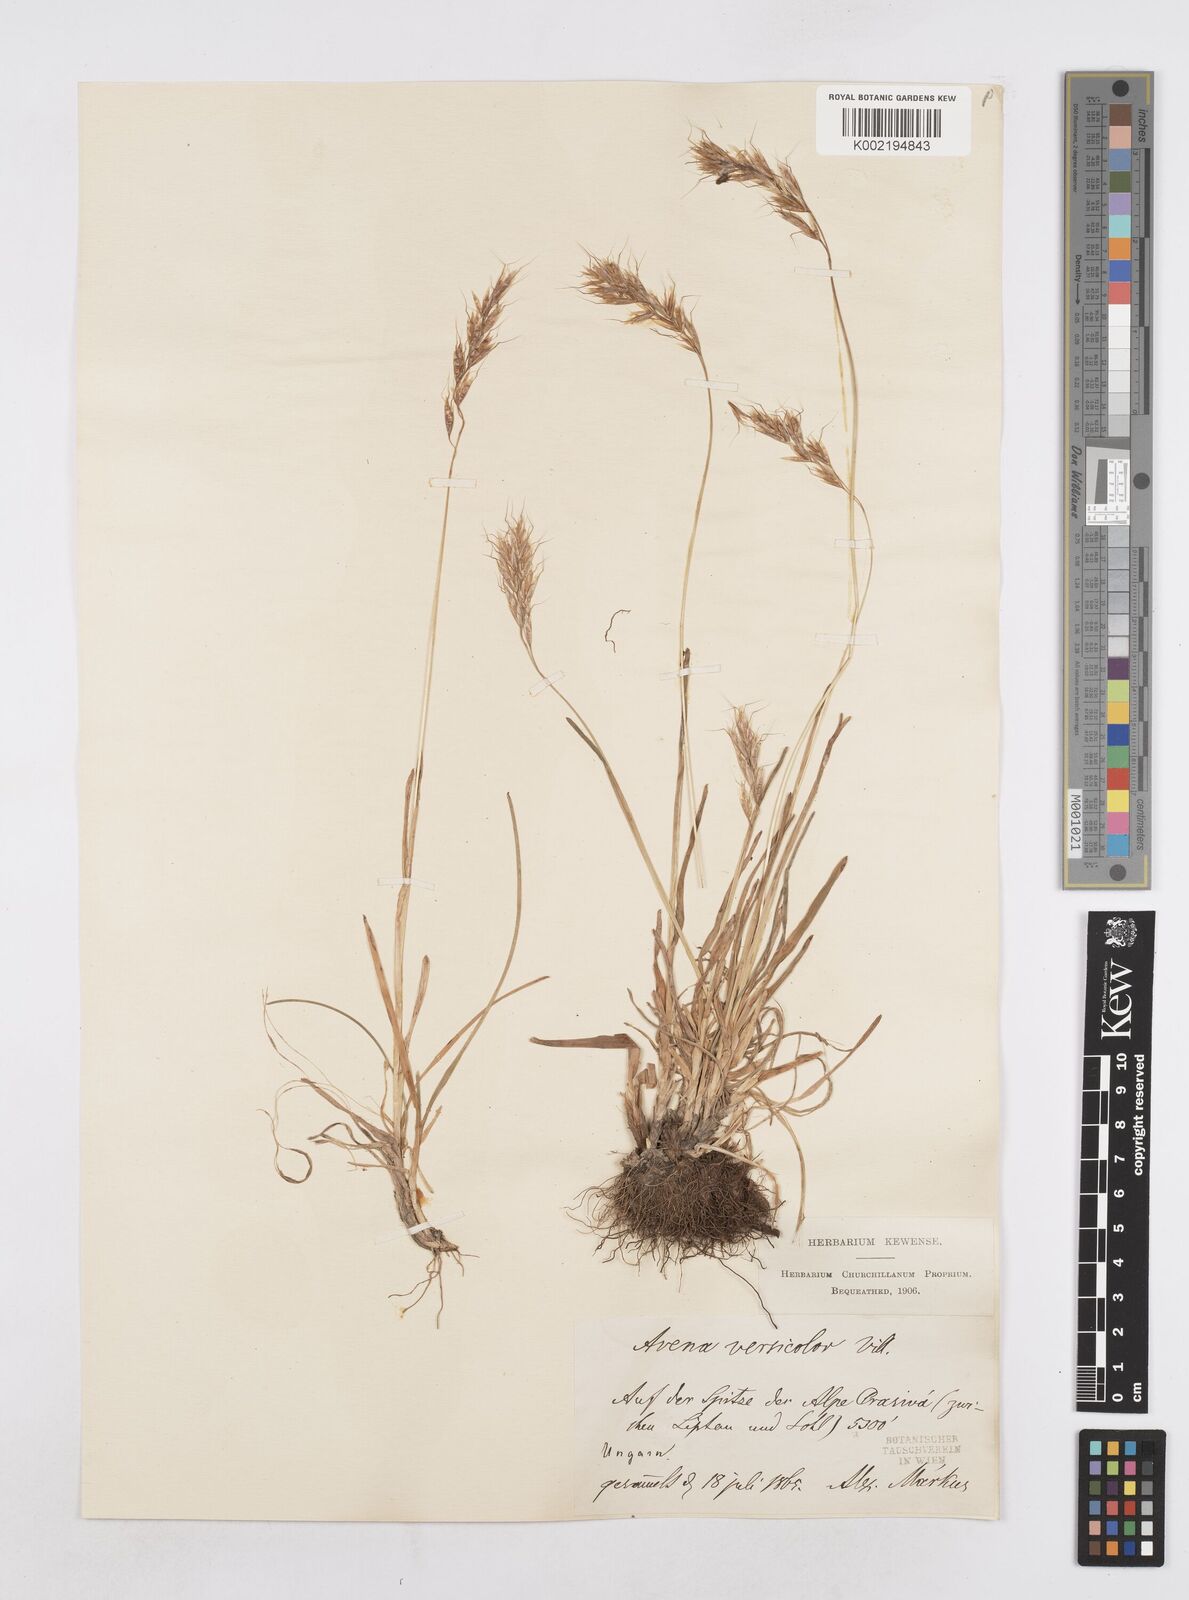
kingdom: Plantae
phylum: Tracheophyta
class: Liliopsida
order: Poales
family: Poaceae
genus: Helictochloa
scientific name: Helictochloa versicolor
